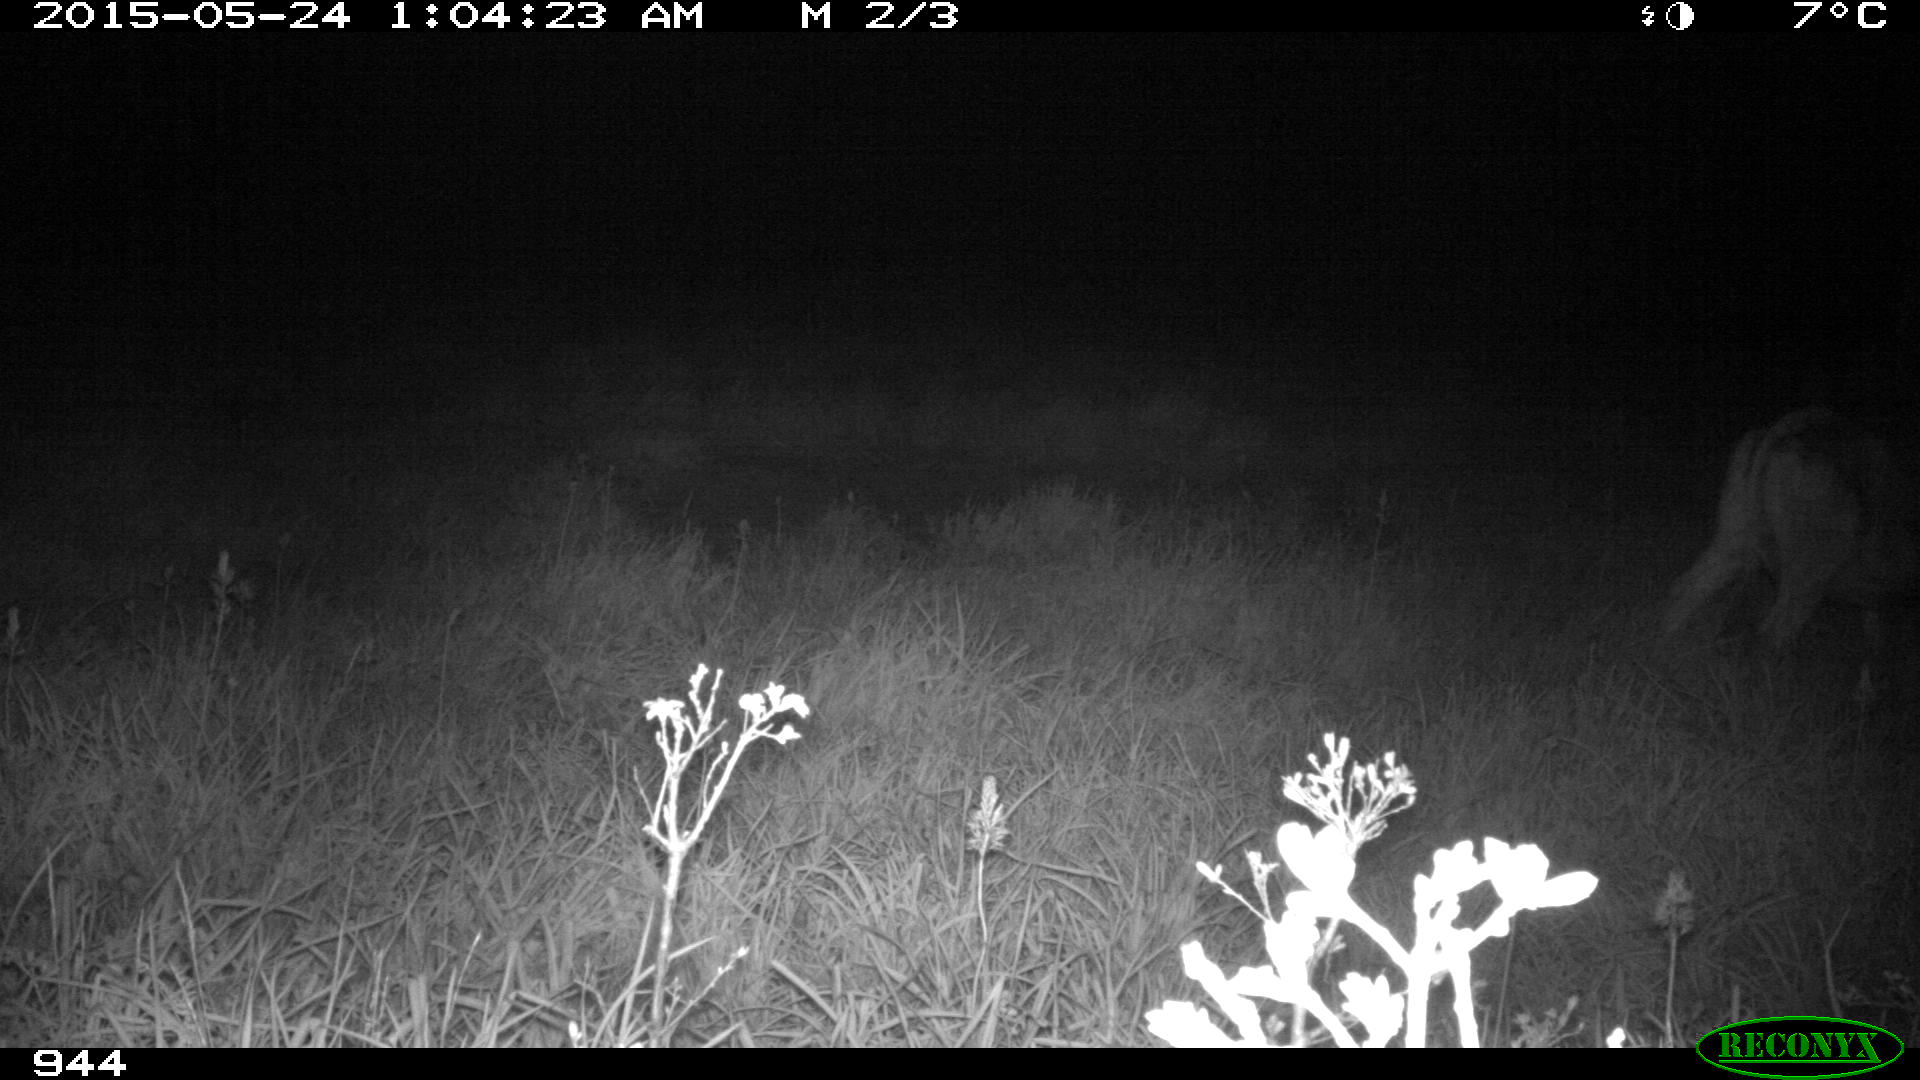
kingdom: Animalia
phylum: Chordata
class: Mammalia
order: Artiodactyla
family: Bovidae
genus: Bos
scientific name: Bos taurus
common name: Domesticated cattle
